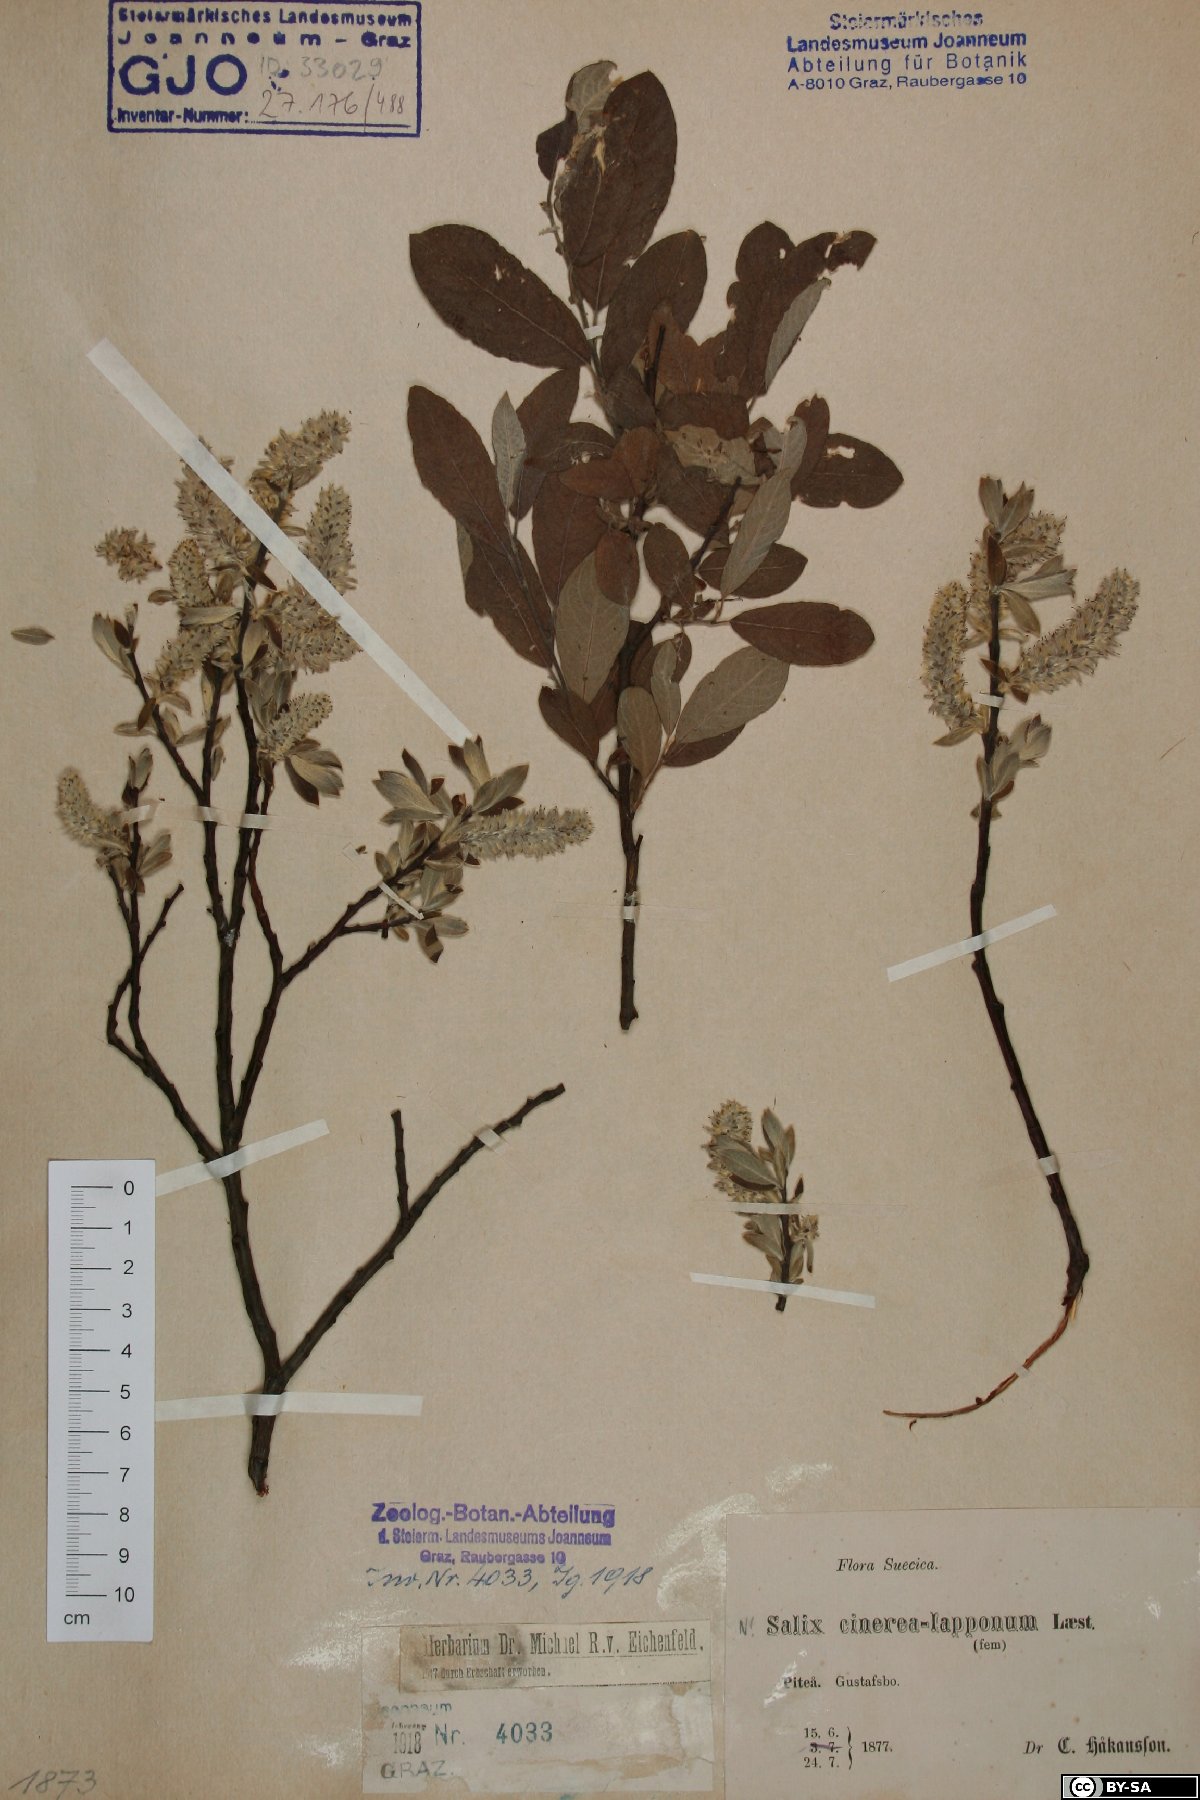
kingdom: Plantae
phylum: Tracheophyta
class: Magnoliopsida
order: Malpighiales
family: Salicaceae
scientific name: Salicaceae
